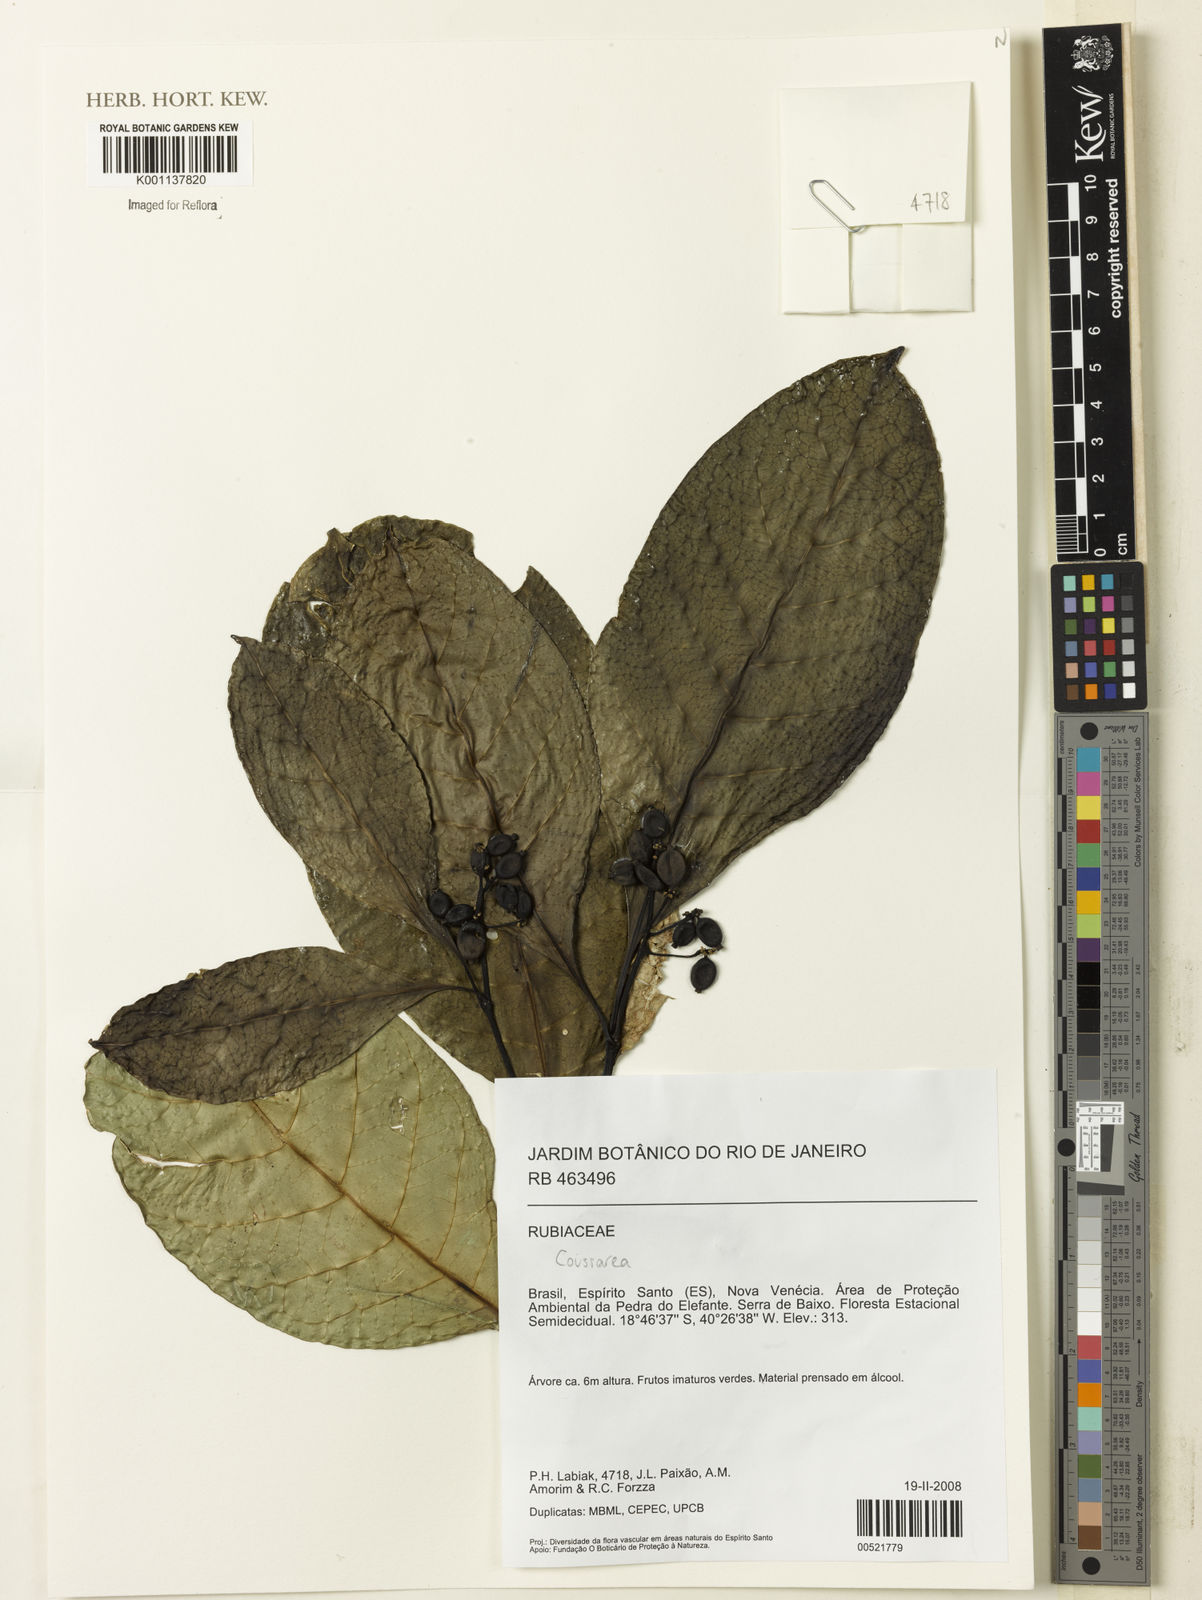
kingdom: Plantae
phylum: Tracheophyta
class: Magnoliopsida
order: Gentianales
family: Rubiaceae
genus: Coussarea
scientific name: Coussarea
